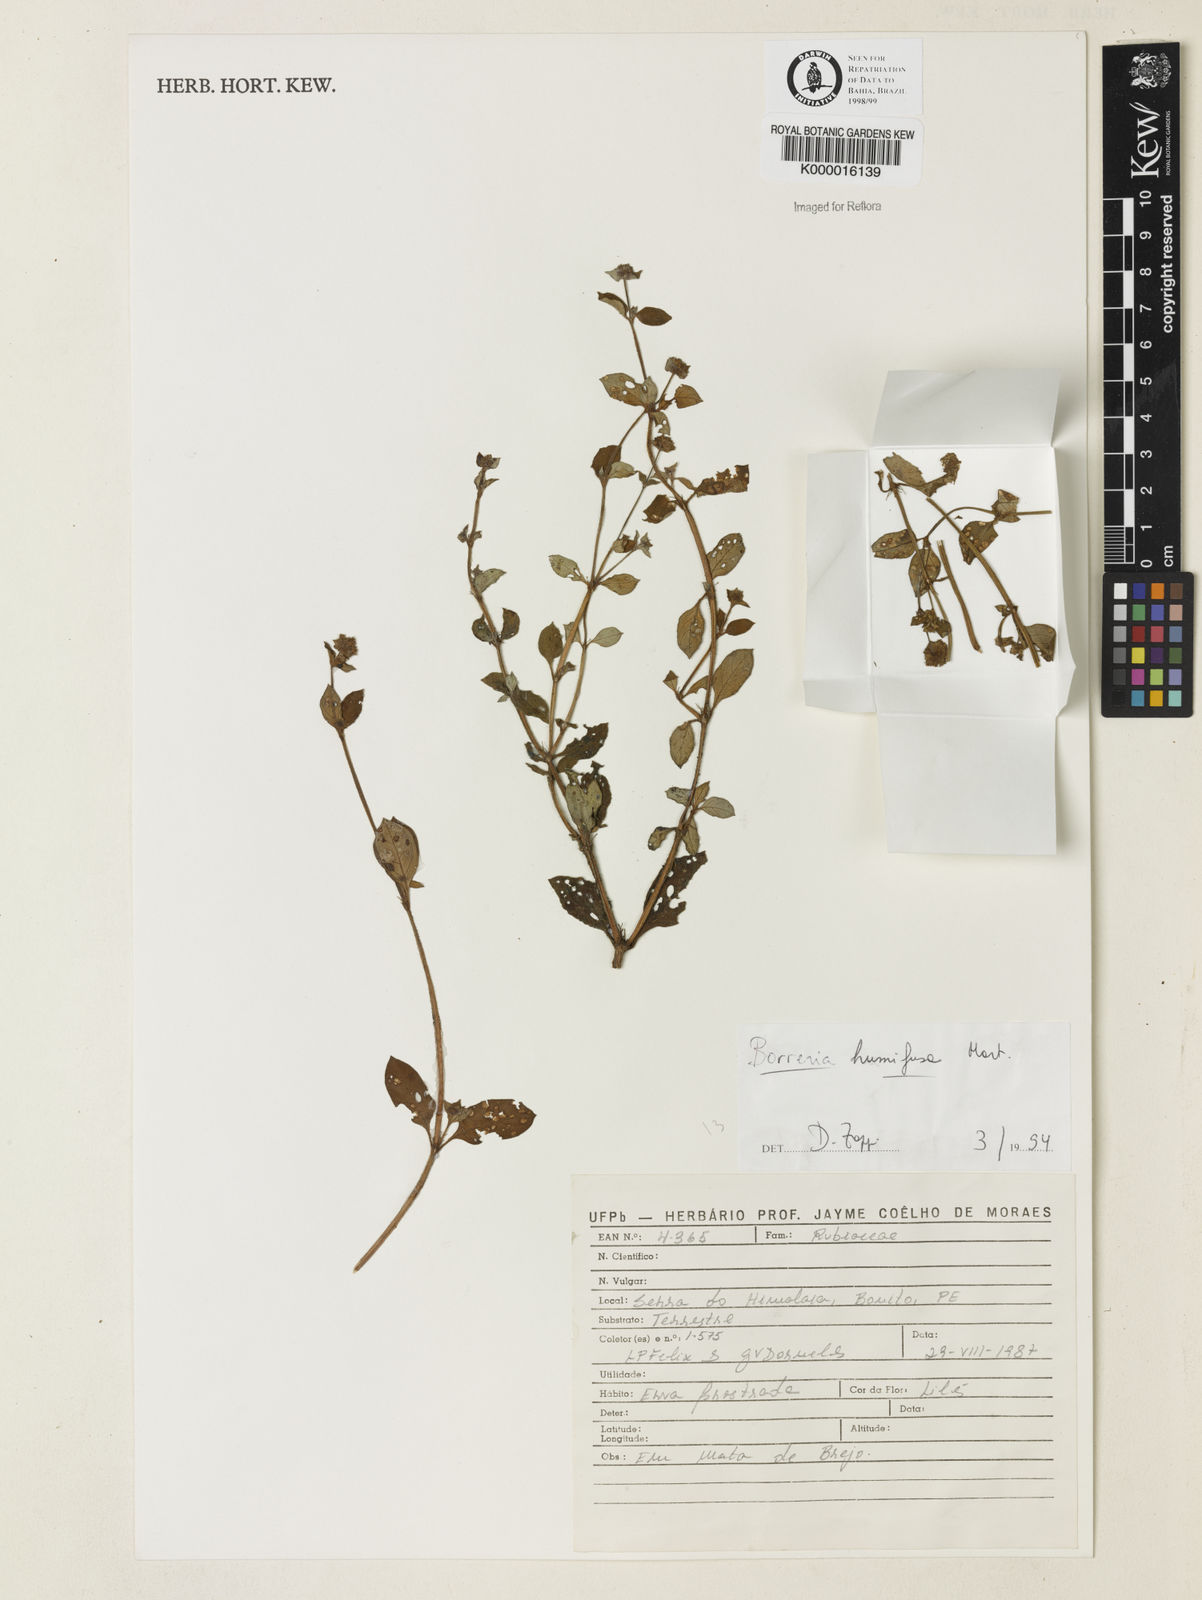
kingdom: Plantae
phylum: Tracheophyta
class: Magnoliopsida
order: Gentianales
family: Rubiaceae
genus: Spermacoce
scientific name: Spermacoce scabiosoides
